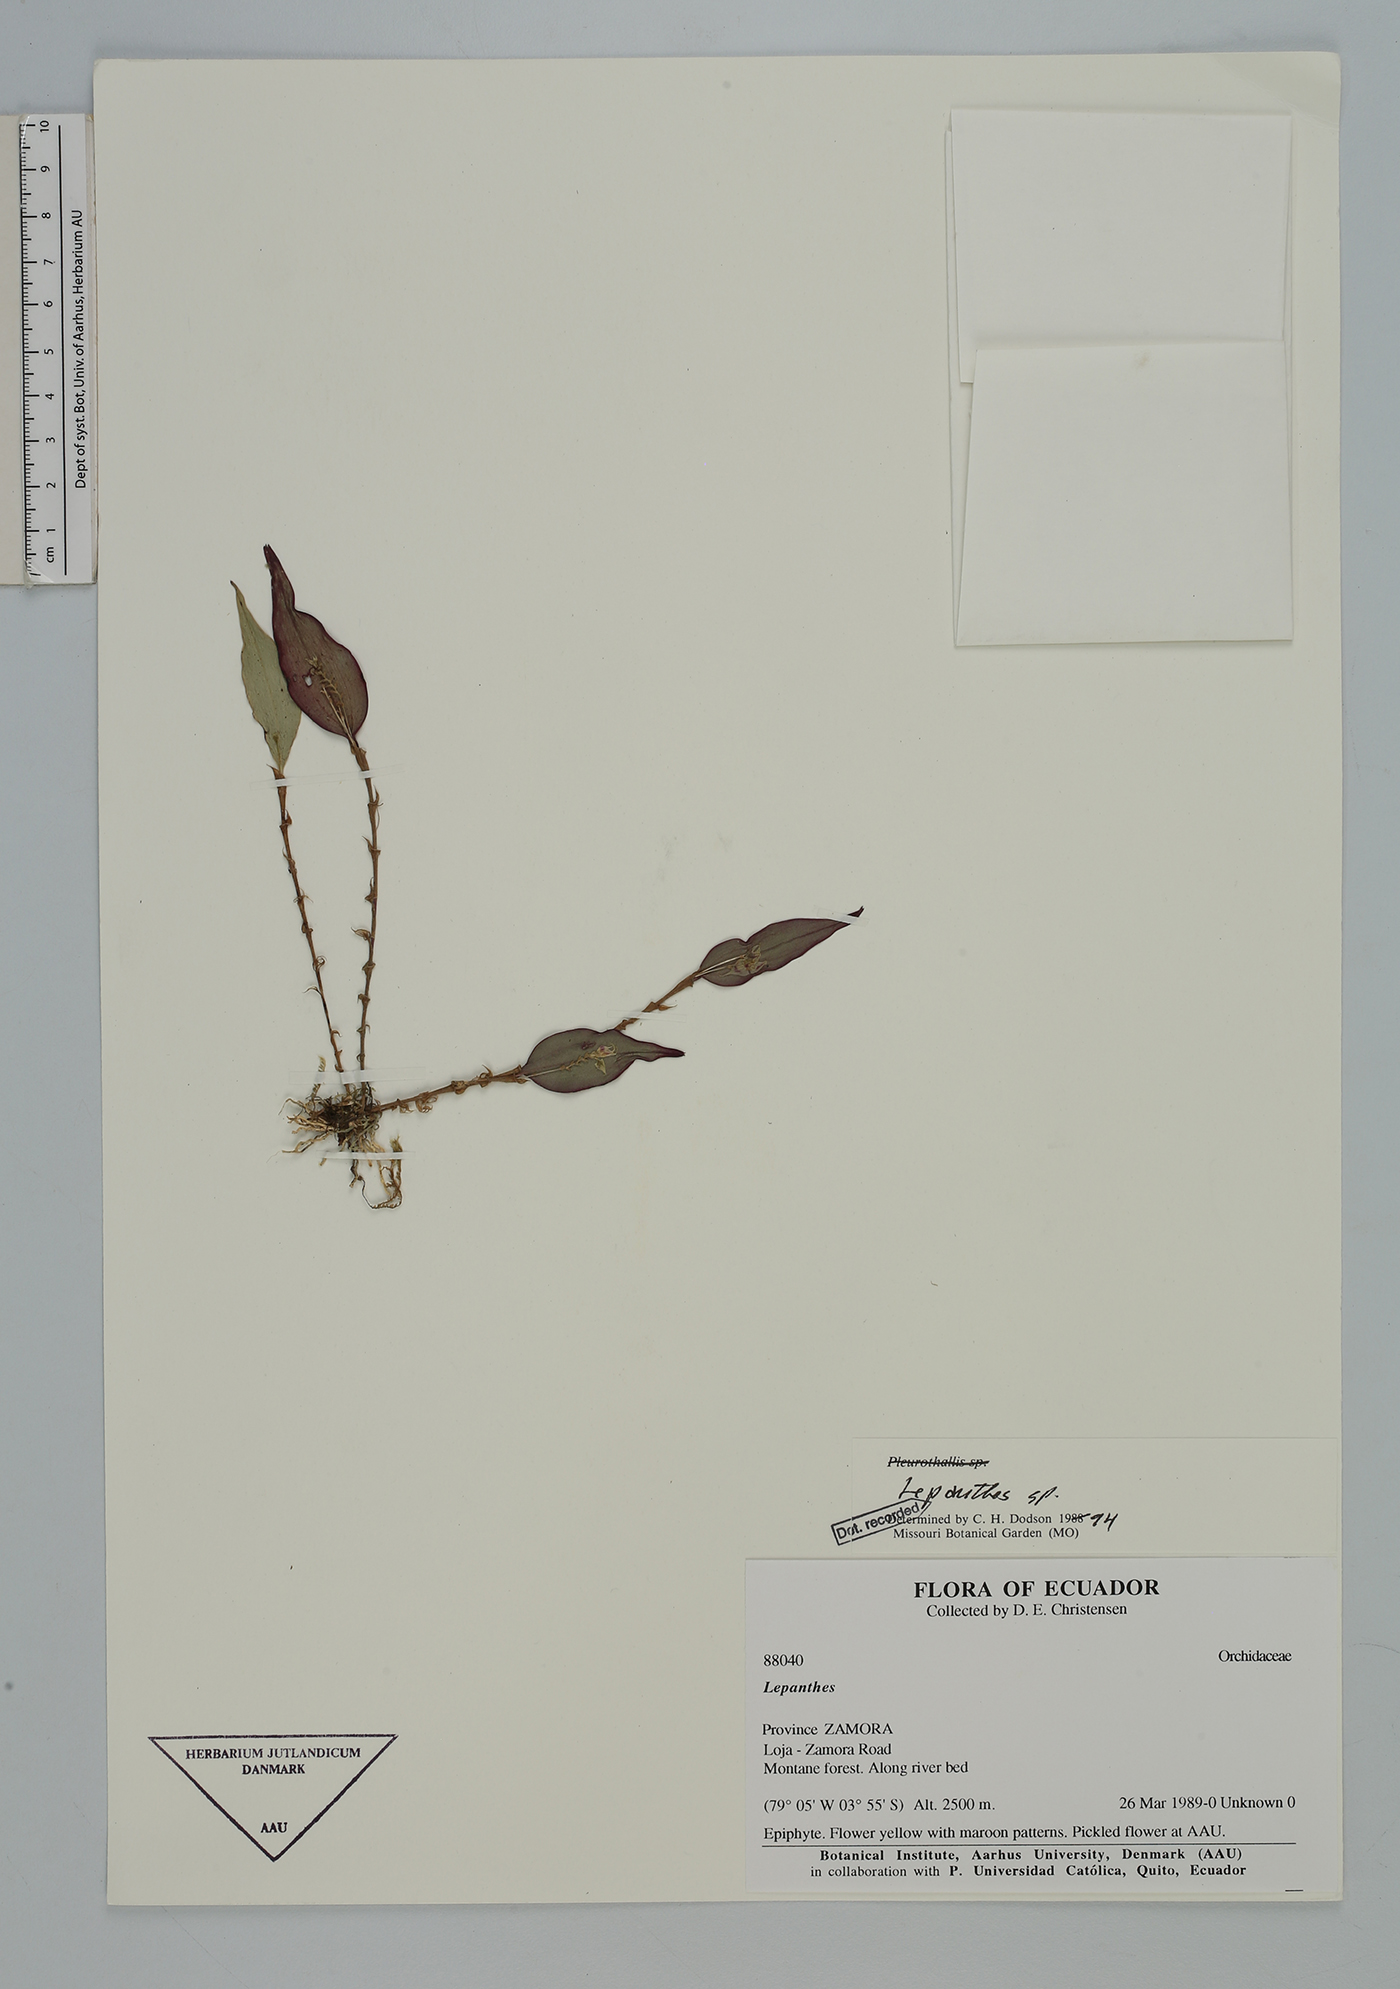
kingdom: Plantae
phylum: Tracheophyta
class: Liliopsida
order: Asparagales
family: Orchidaceae
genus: Lepanthes
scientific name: Lepanthes
